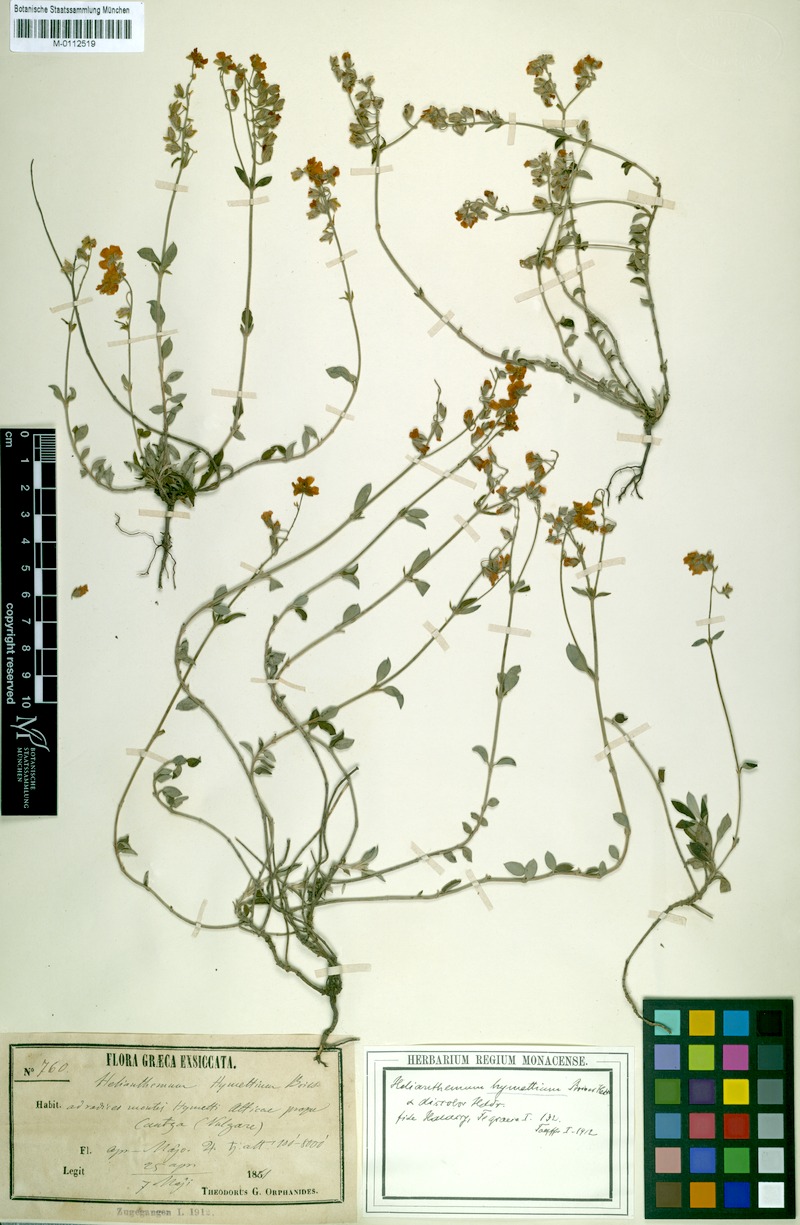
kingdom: Plantae
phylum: Tracheophyta
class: Magnoliopsida
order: Malvales
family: Cistaceae
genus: Helianthemum
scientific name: Helianthemum hymettium
